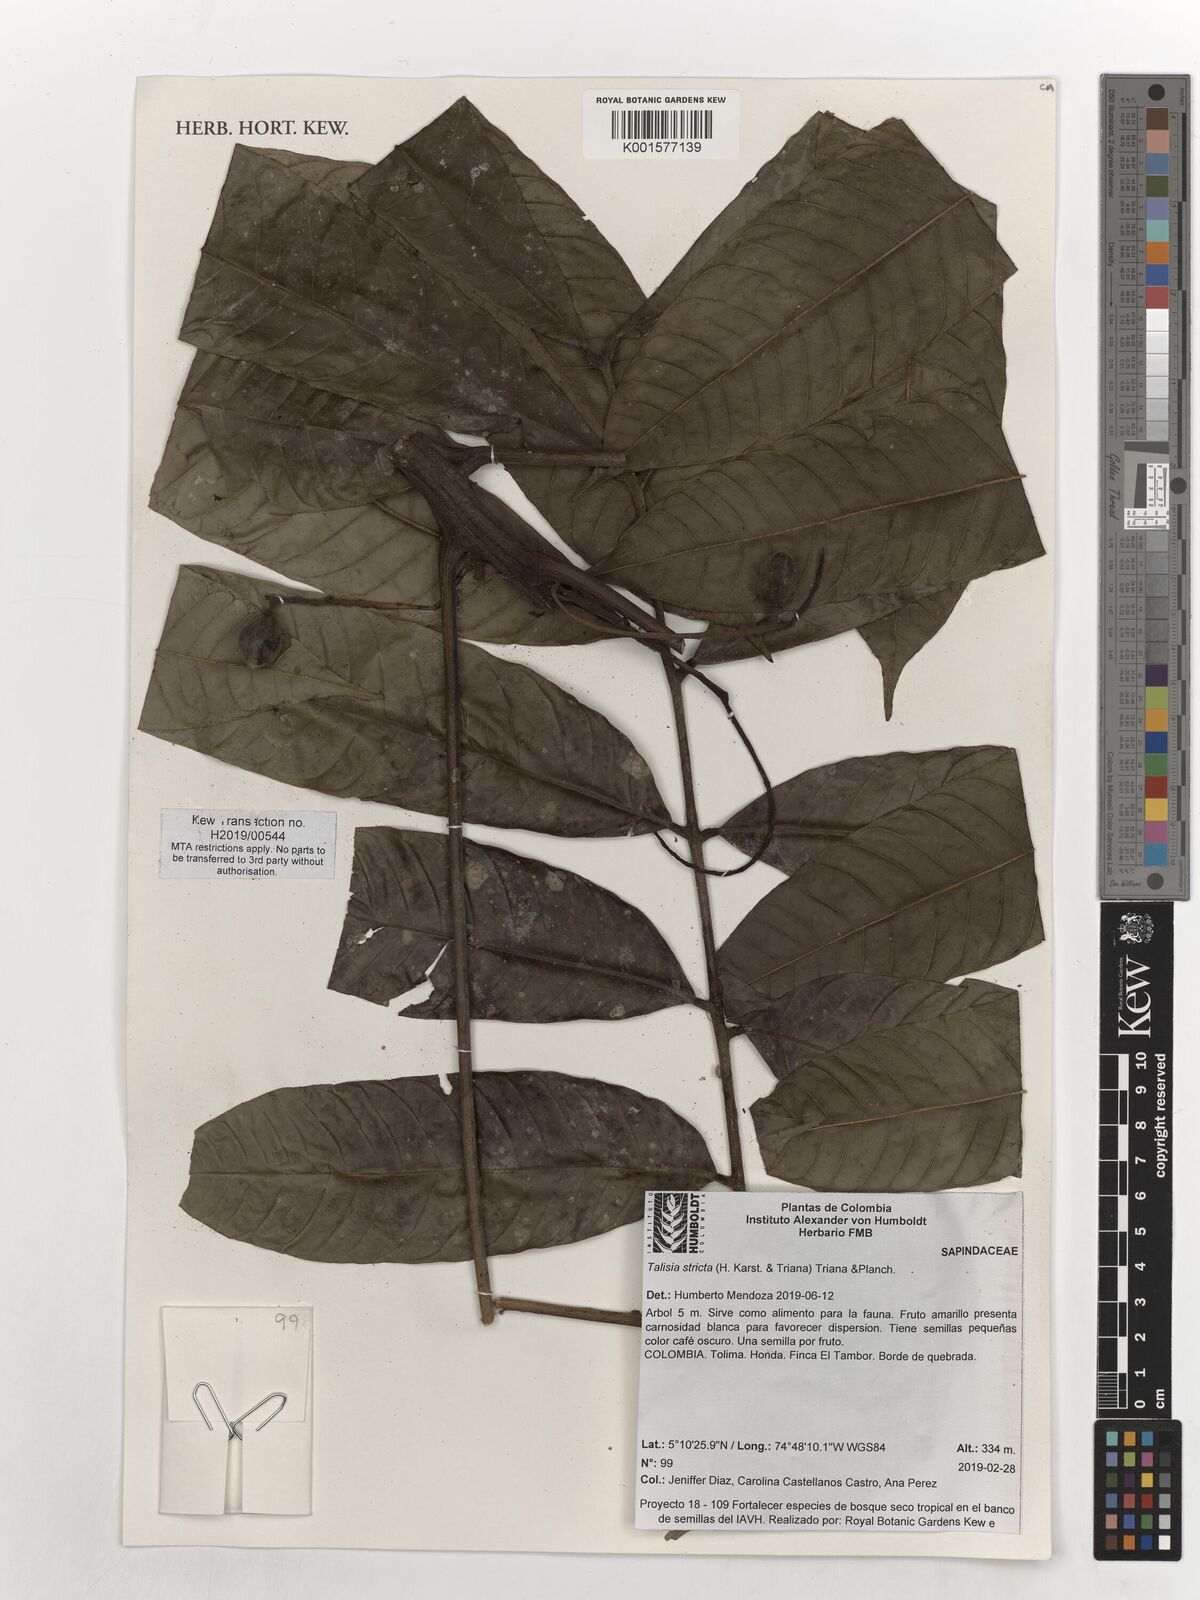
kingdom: Plantae
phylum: Tracheophyta
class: Magnoliopsida
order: Sapindales
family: Sapindaceae
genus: Talisia
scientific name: Talisia
